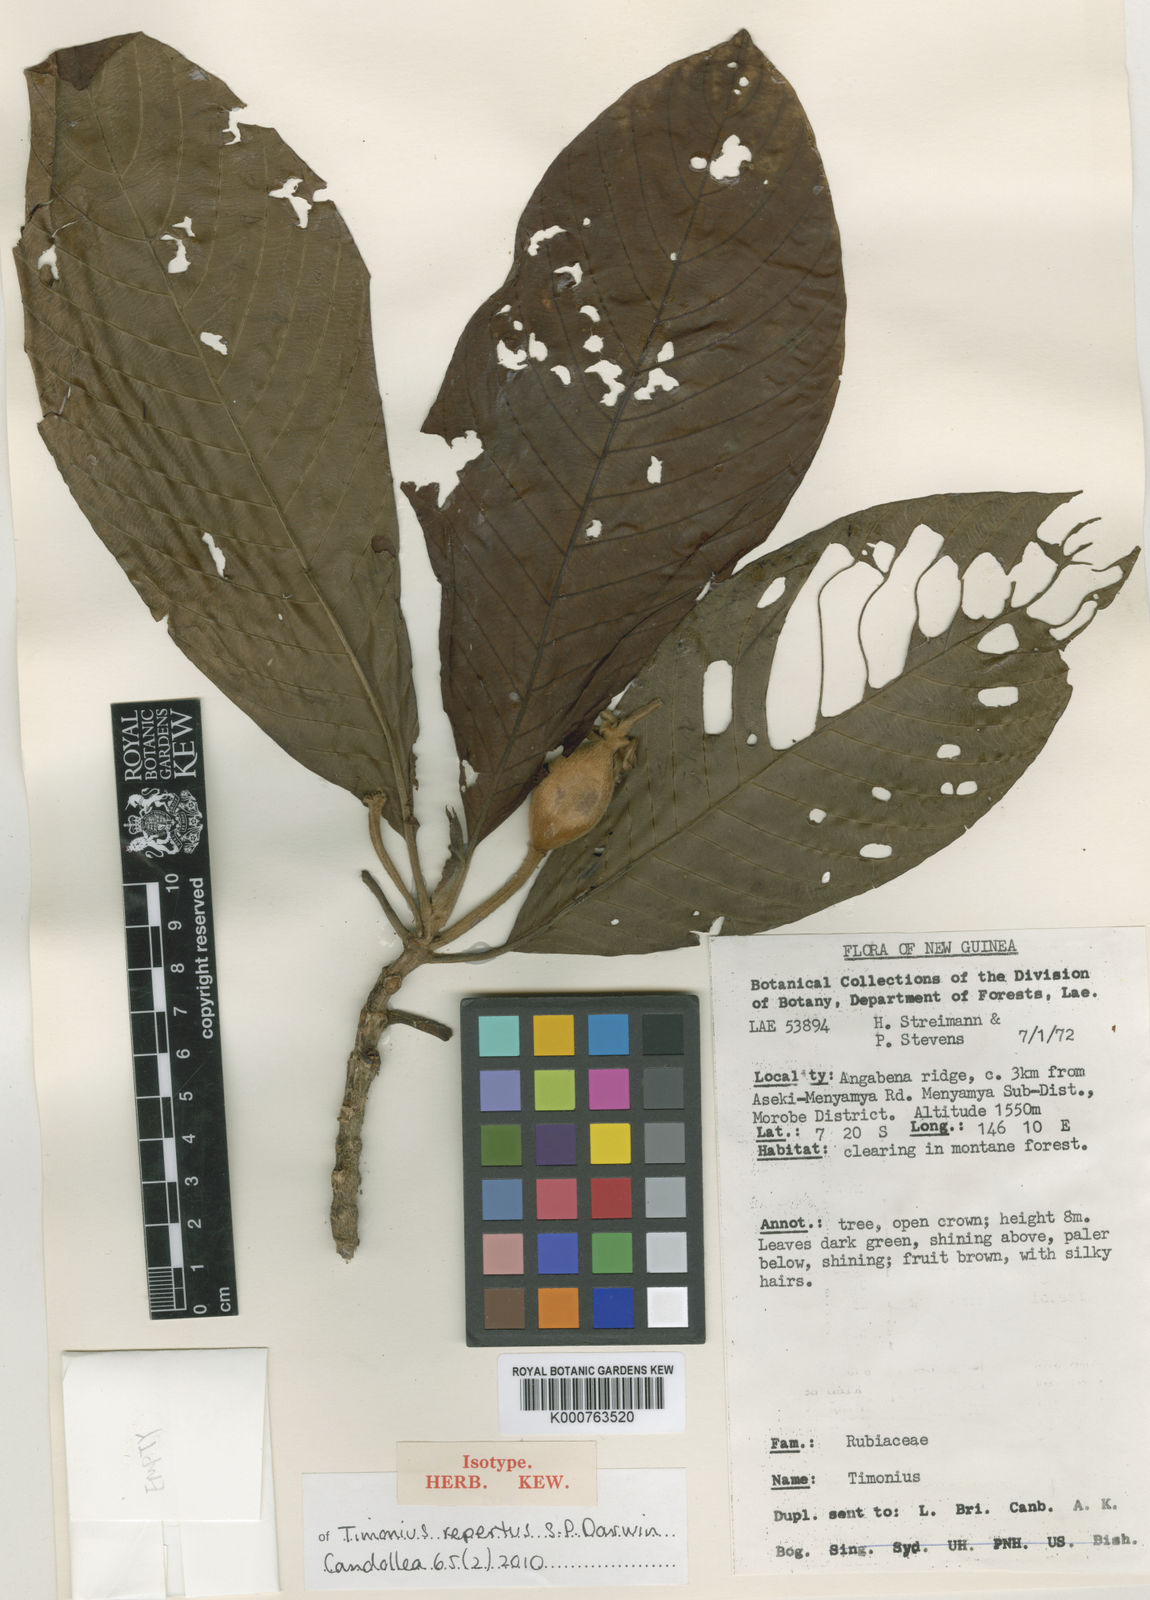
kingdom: Plantae
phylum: Tracheophyta
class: Magnoliopsida
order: Gentianales
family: Rubiaceae
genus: Timonius
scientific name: Timonius repertus
